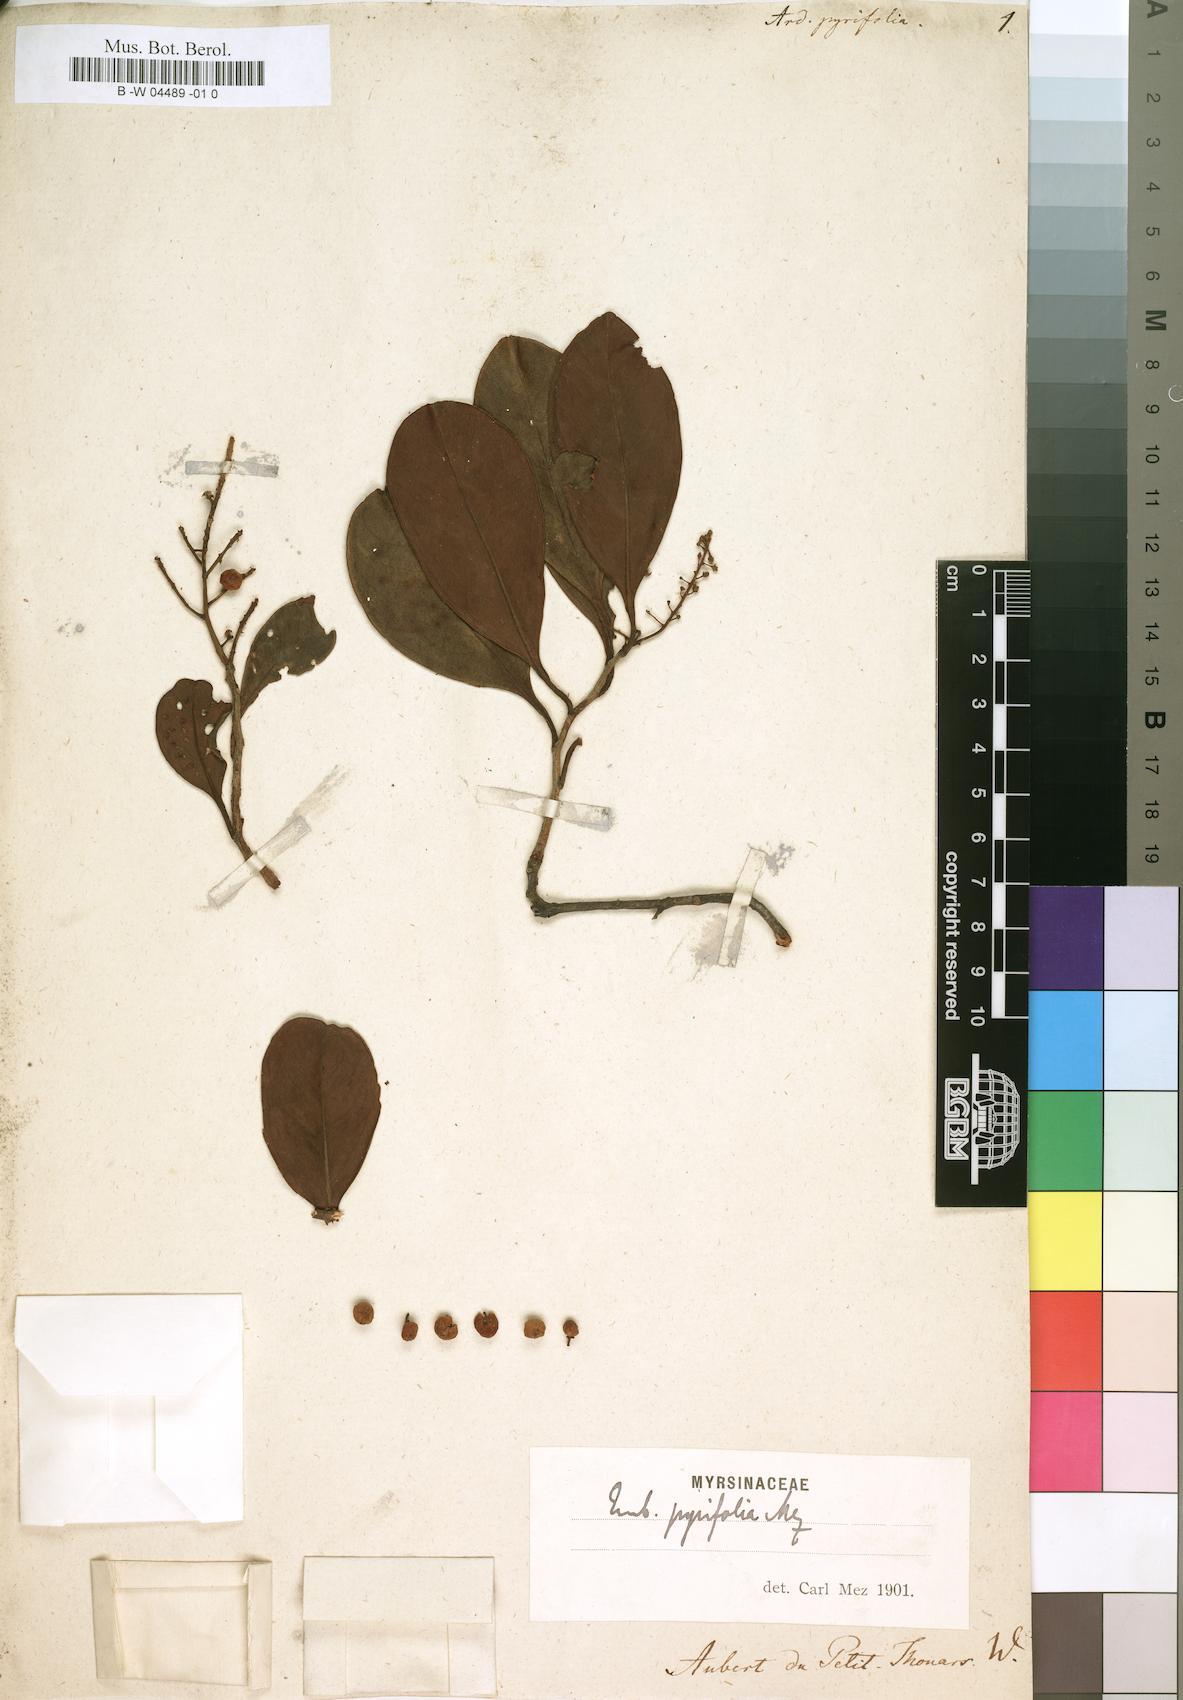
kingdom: Plantae
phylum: Tracheophyta
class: Magnoliopsida
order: Ericales
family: Primulaceae
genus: Embelia
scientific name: Embelia pyrifolia
